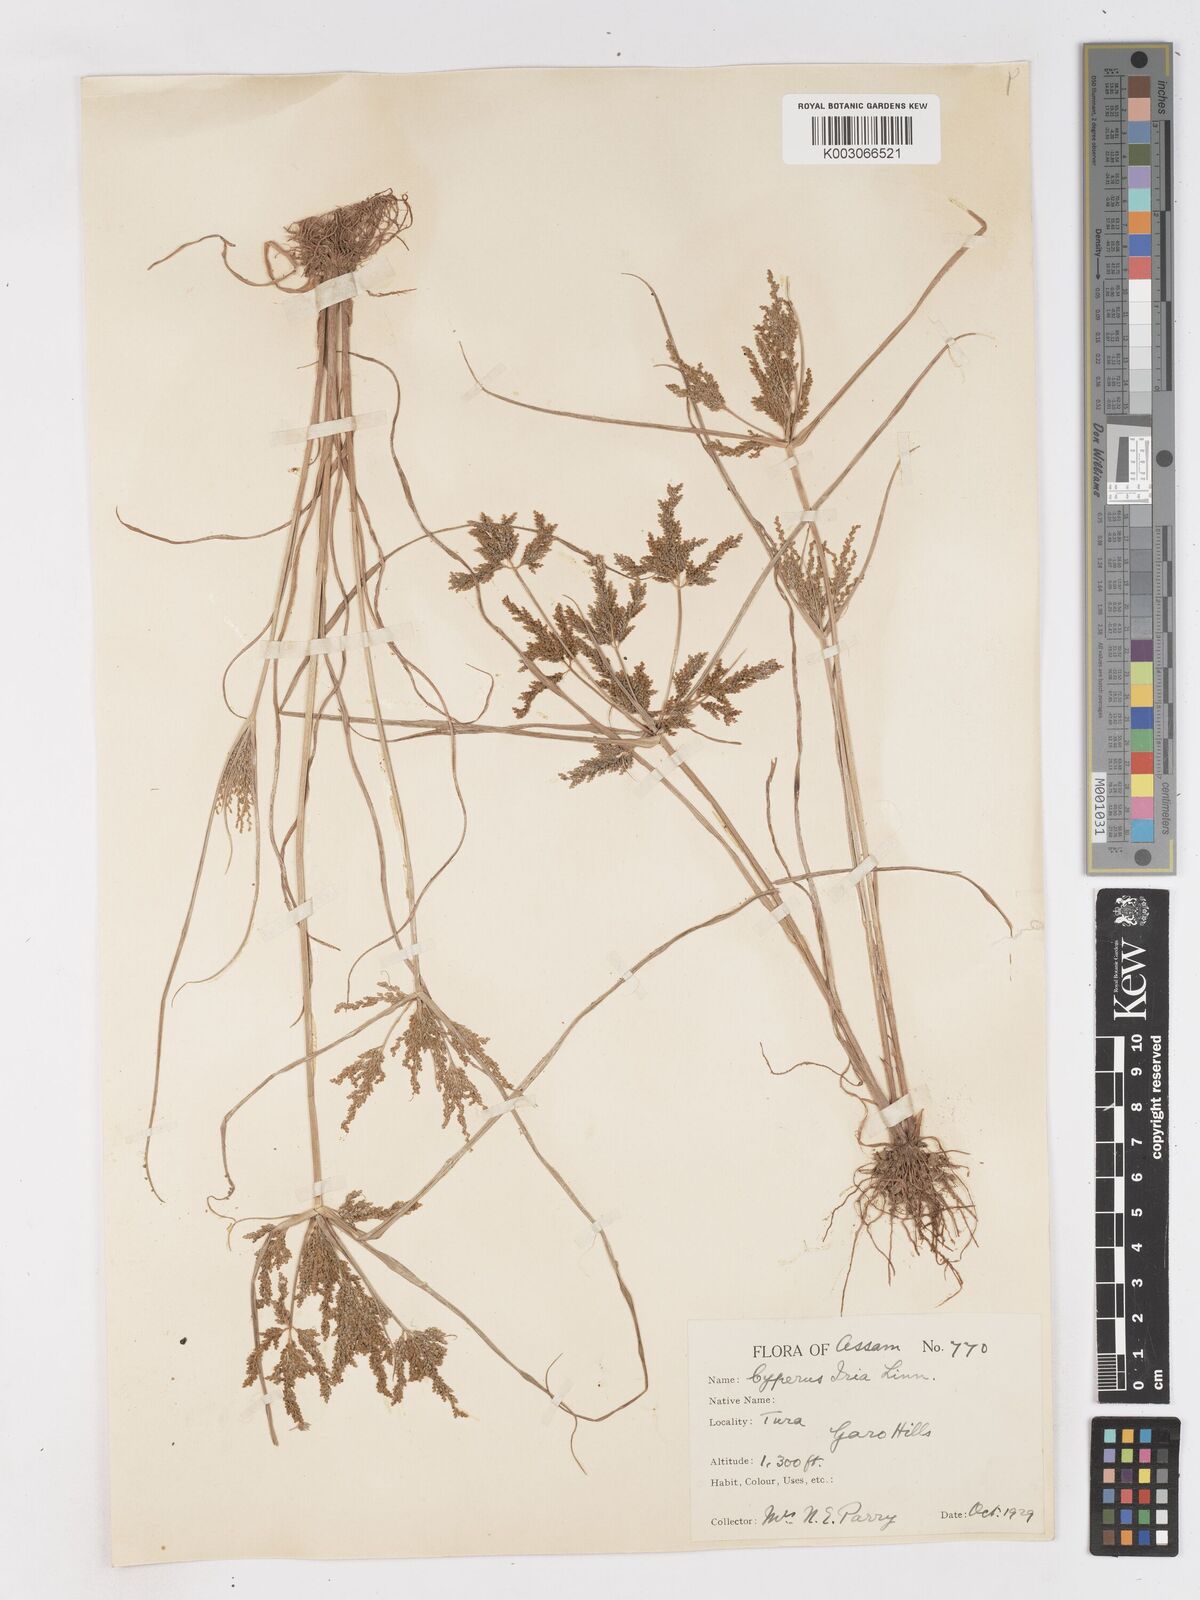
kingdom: Plantae
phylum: Tracheophyta
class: Liliopsida
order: Poales
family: Cyperaceae
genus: Cyperus
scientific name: Cyperus iria
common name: Ricefield flatsedge
